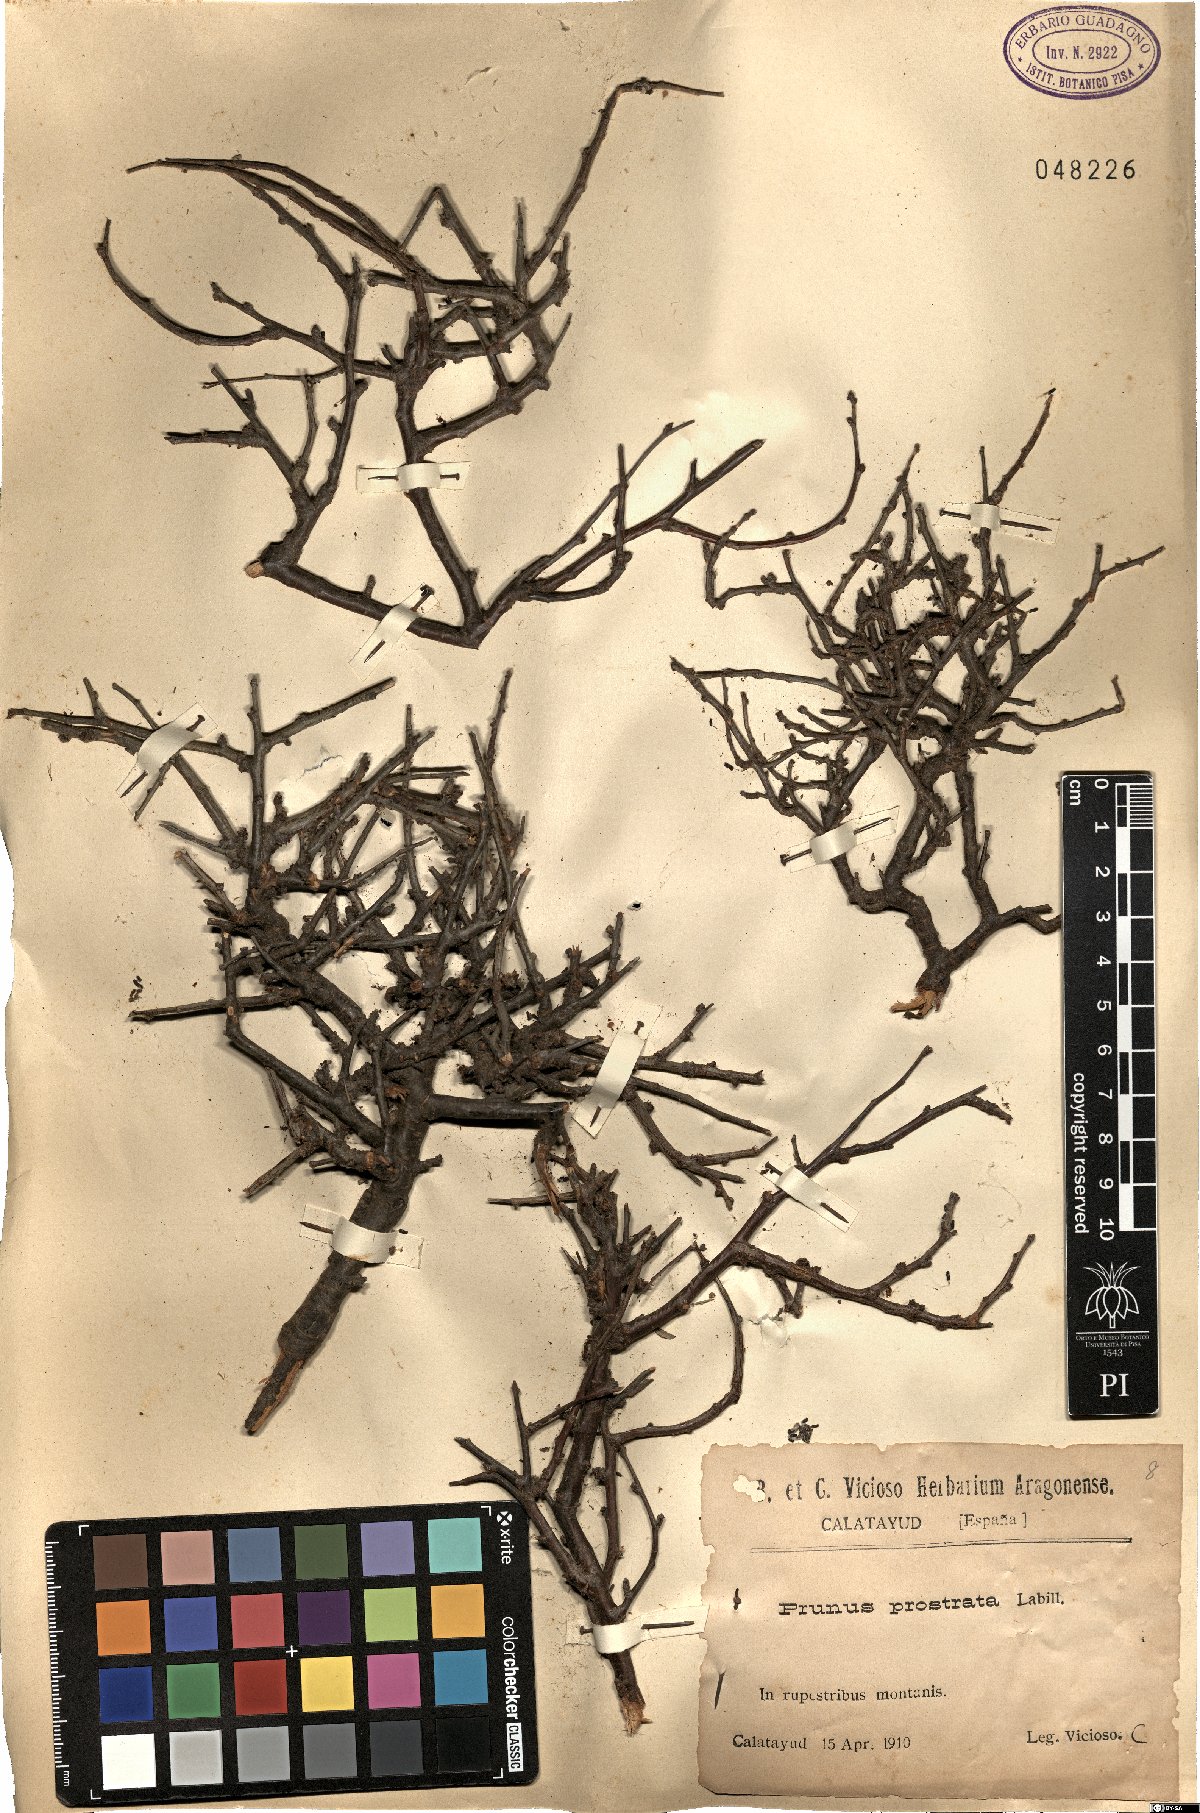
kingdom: Plantae
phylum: Tracheophyta
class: Magnoliopsida
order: Rosales
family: Rosaceae
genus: Prunus
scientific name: Prunus prostrata
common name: Mountain cherry
